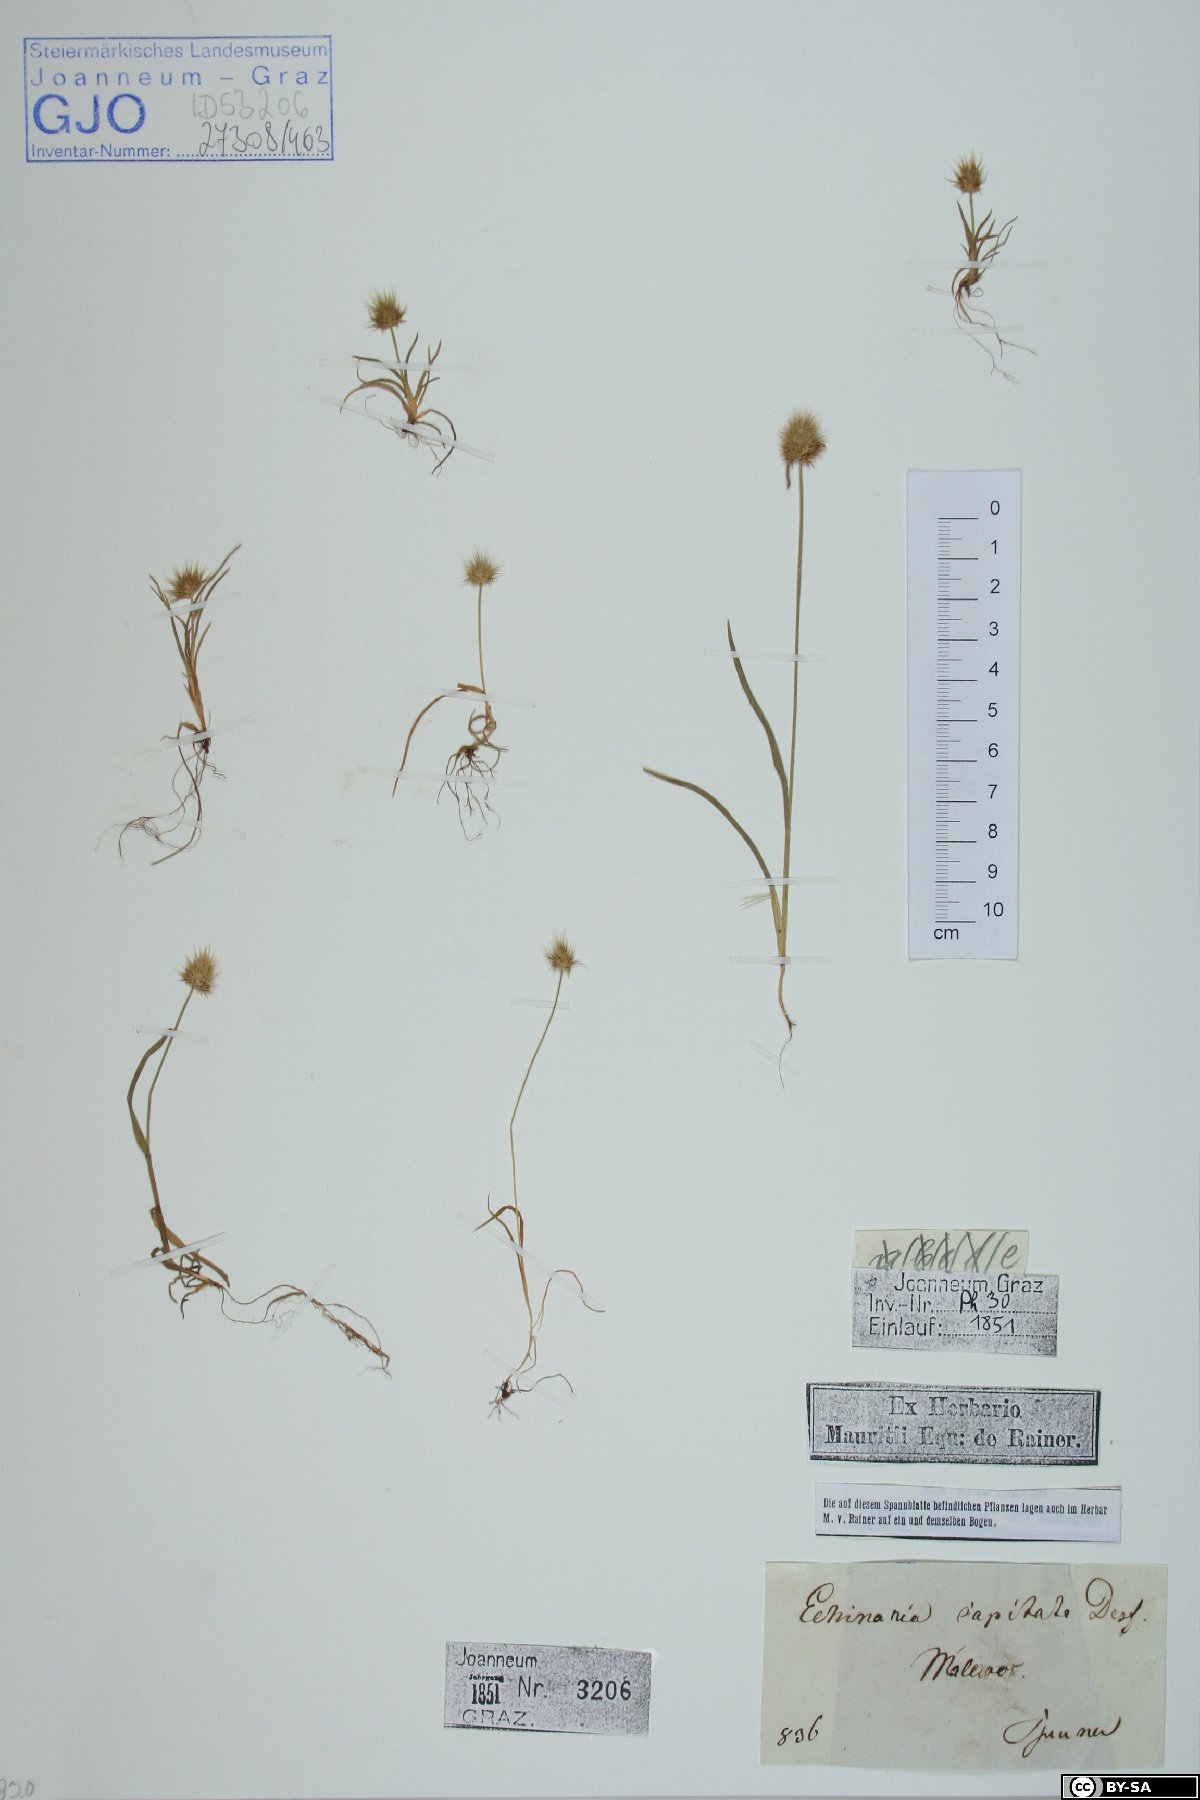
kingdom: Plantae
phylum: Tracheophyta
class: Liliopsida
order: Poales
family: Poaceae
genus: Echinaria
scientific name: Echinaria capitata
